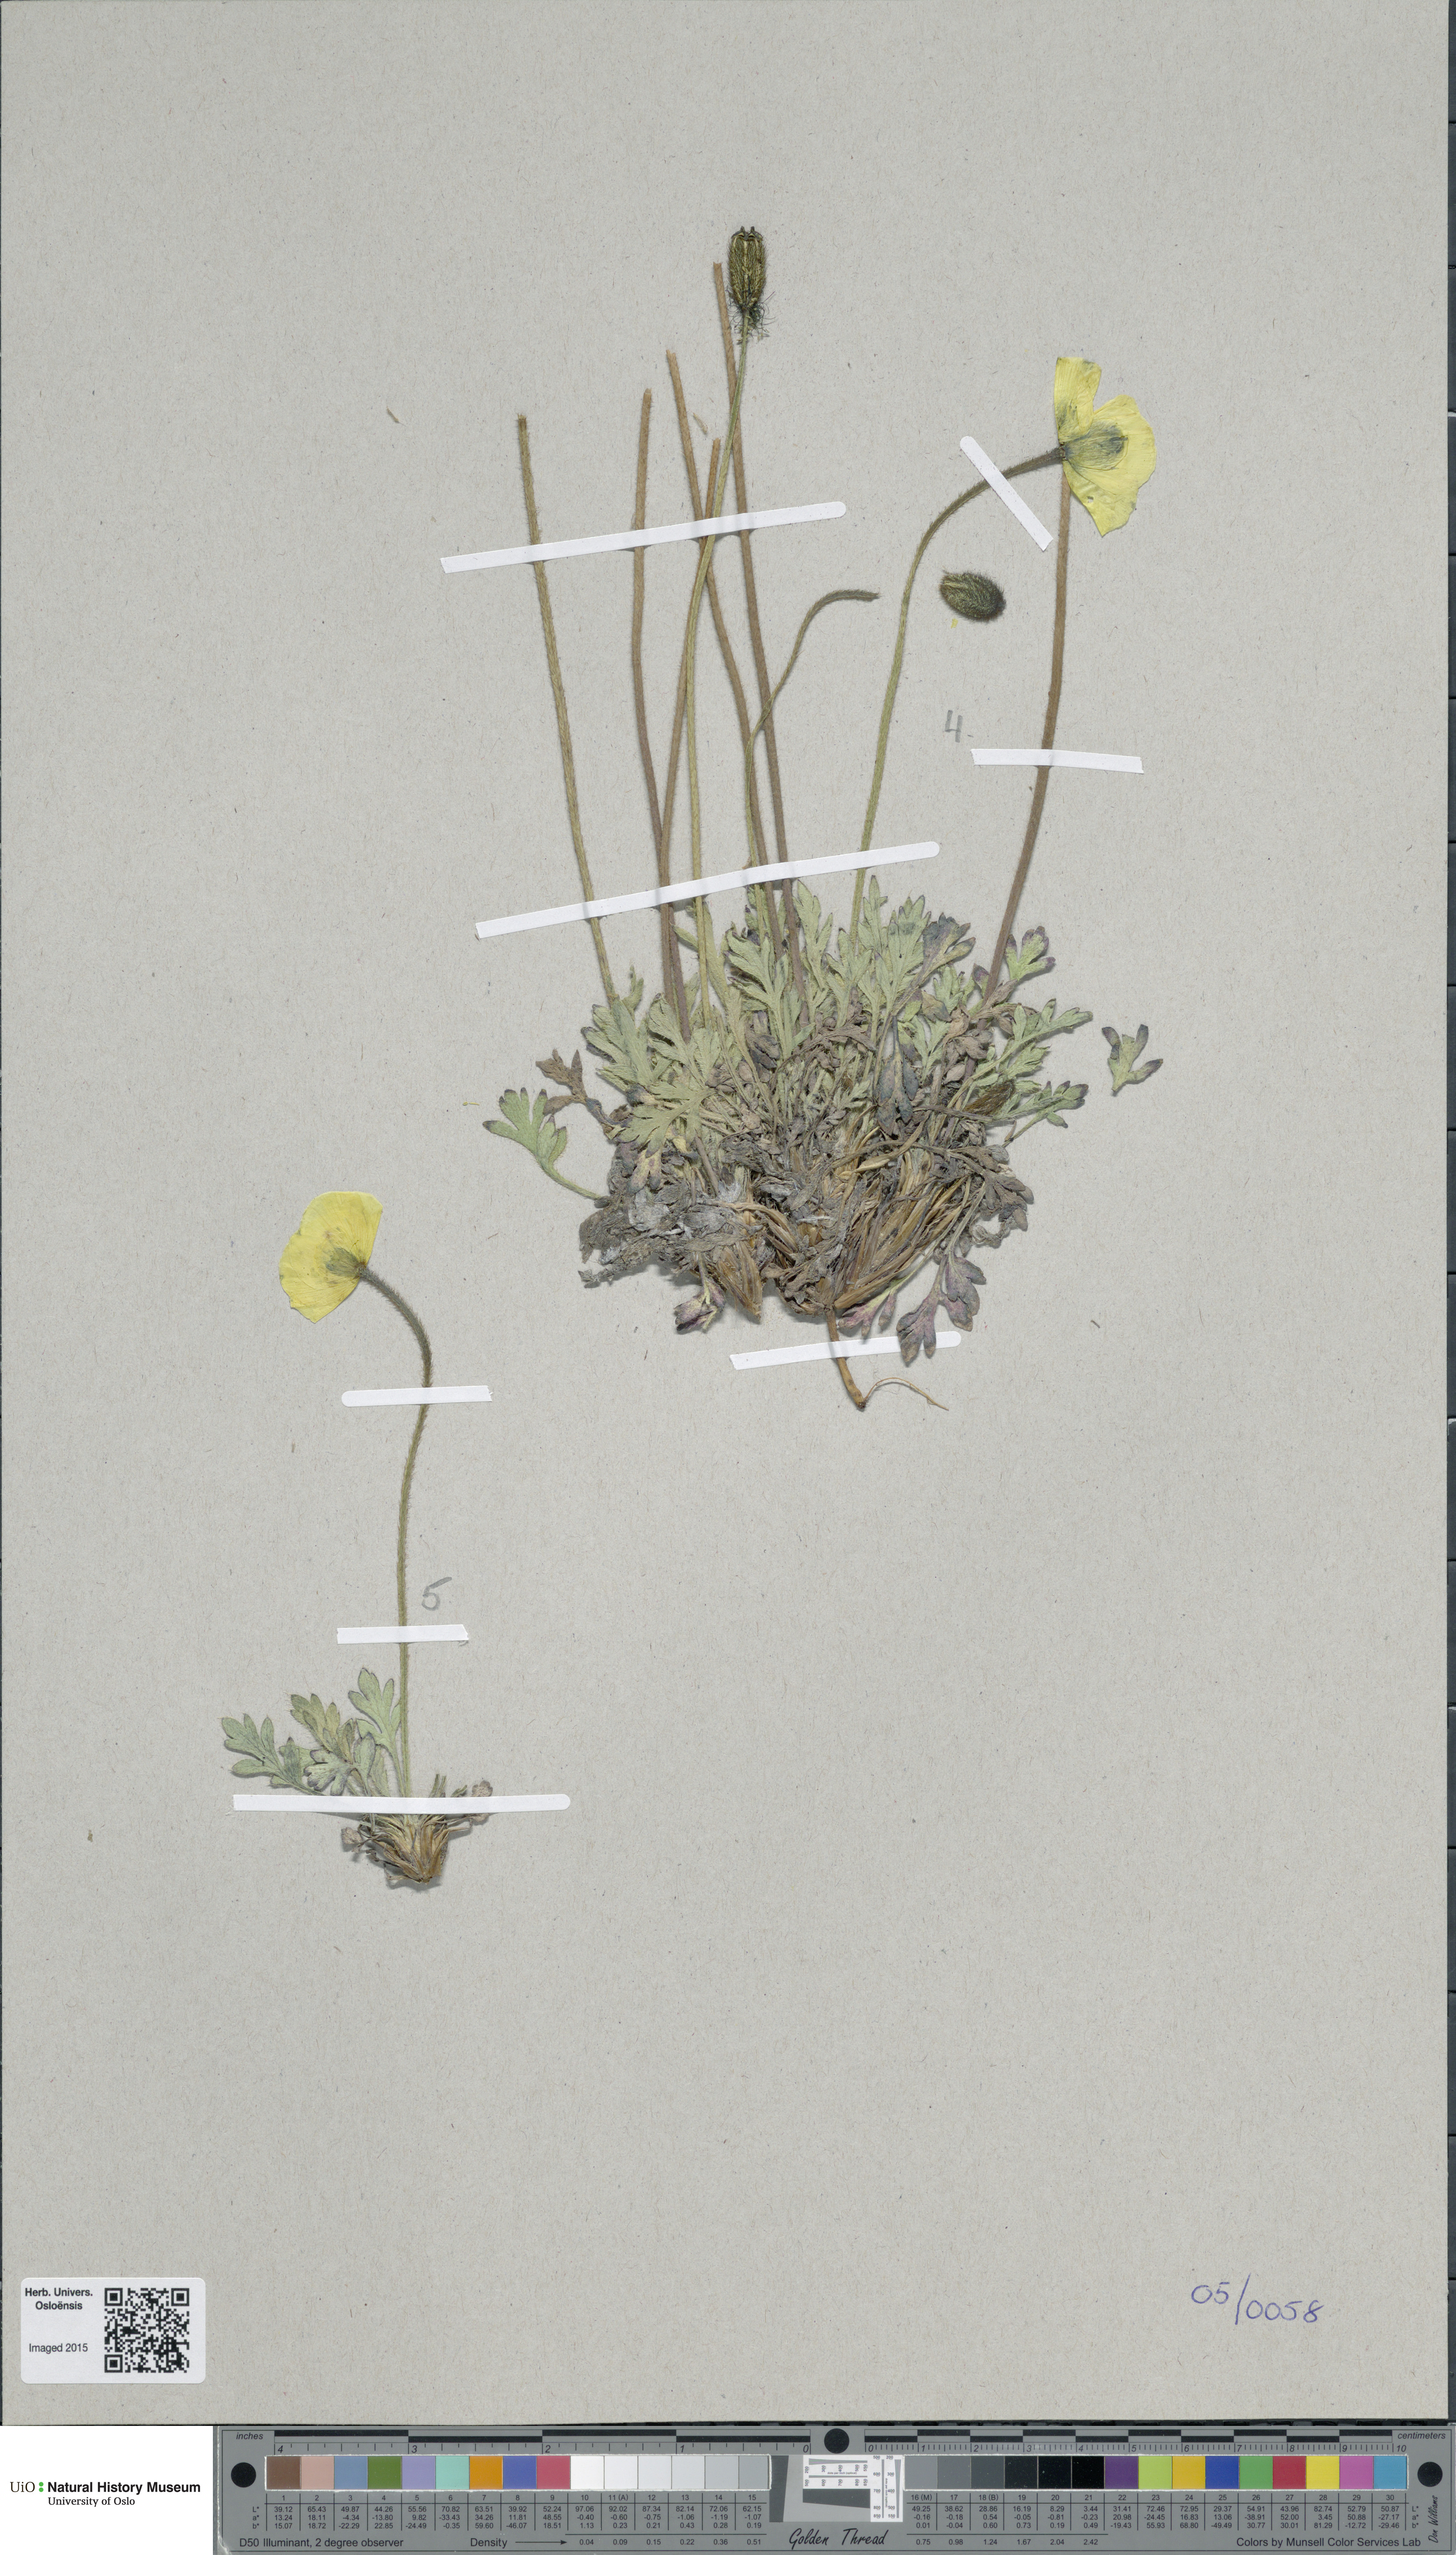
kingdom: Plantae
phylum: Tracheophyta
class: Magnoliopsida
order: Ranunculales
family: Papaveraceae
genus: Papaver
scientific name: Papaver detritophilum
